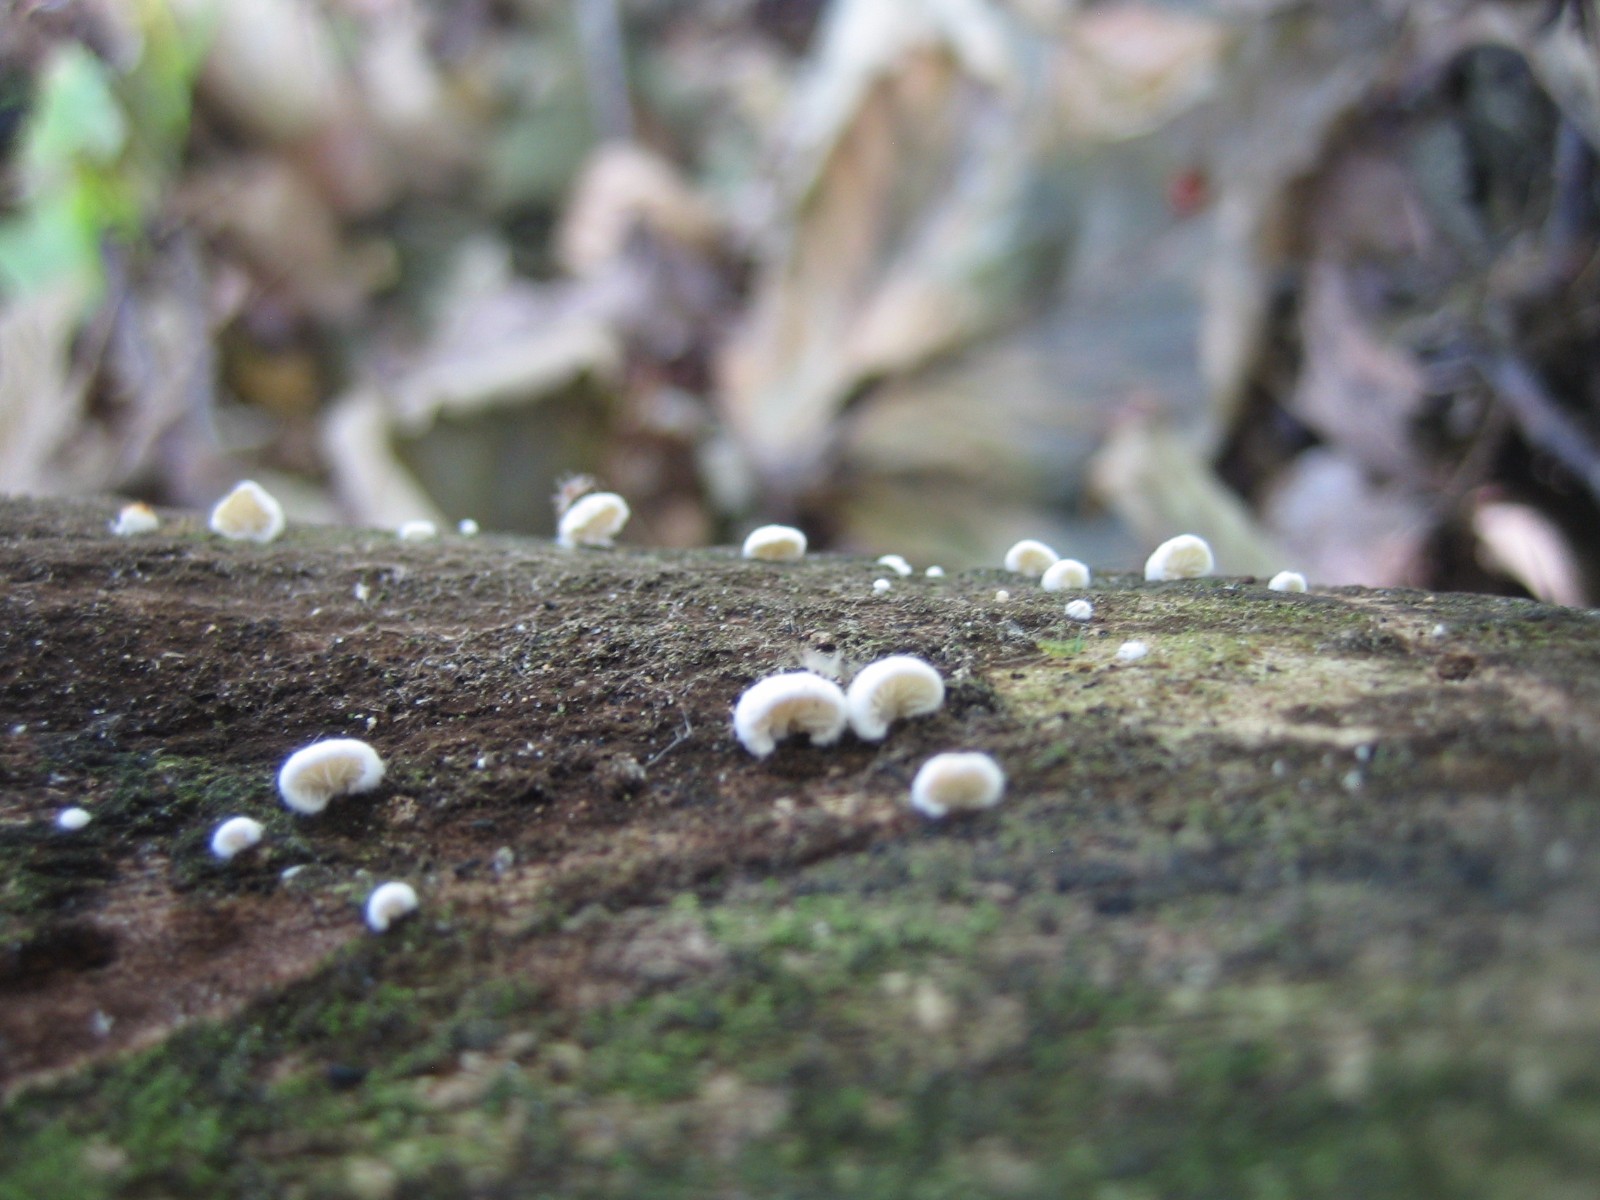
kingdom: Fungi
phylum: Basidiomycota
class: Agaricomycetes
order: Agaricales
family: Crepidotaceae
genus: Crepidotus
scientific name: Crepidotus
